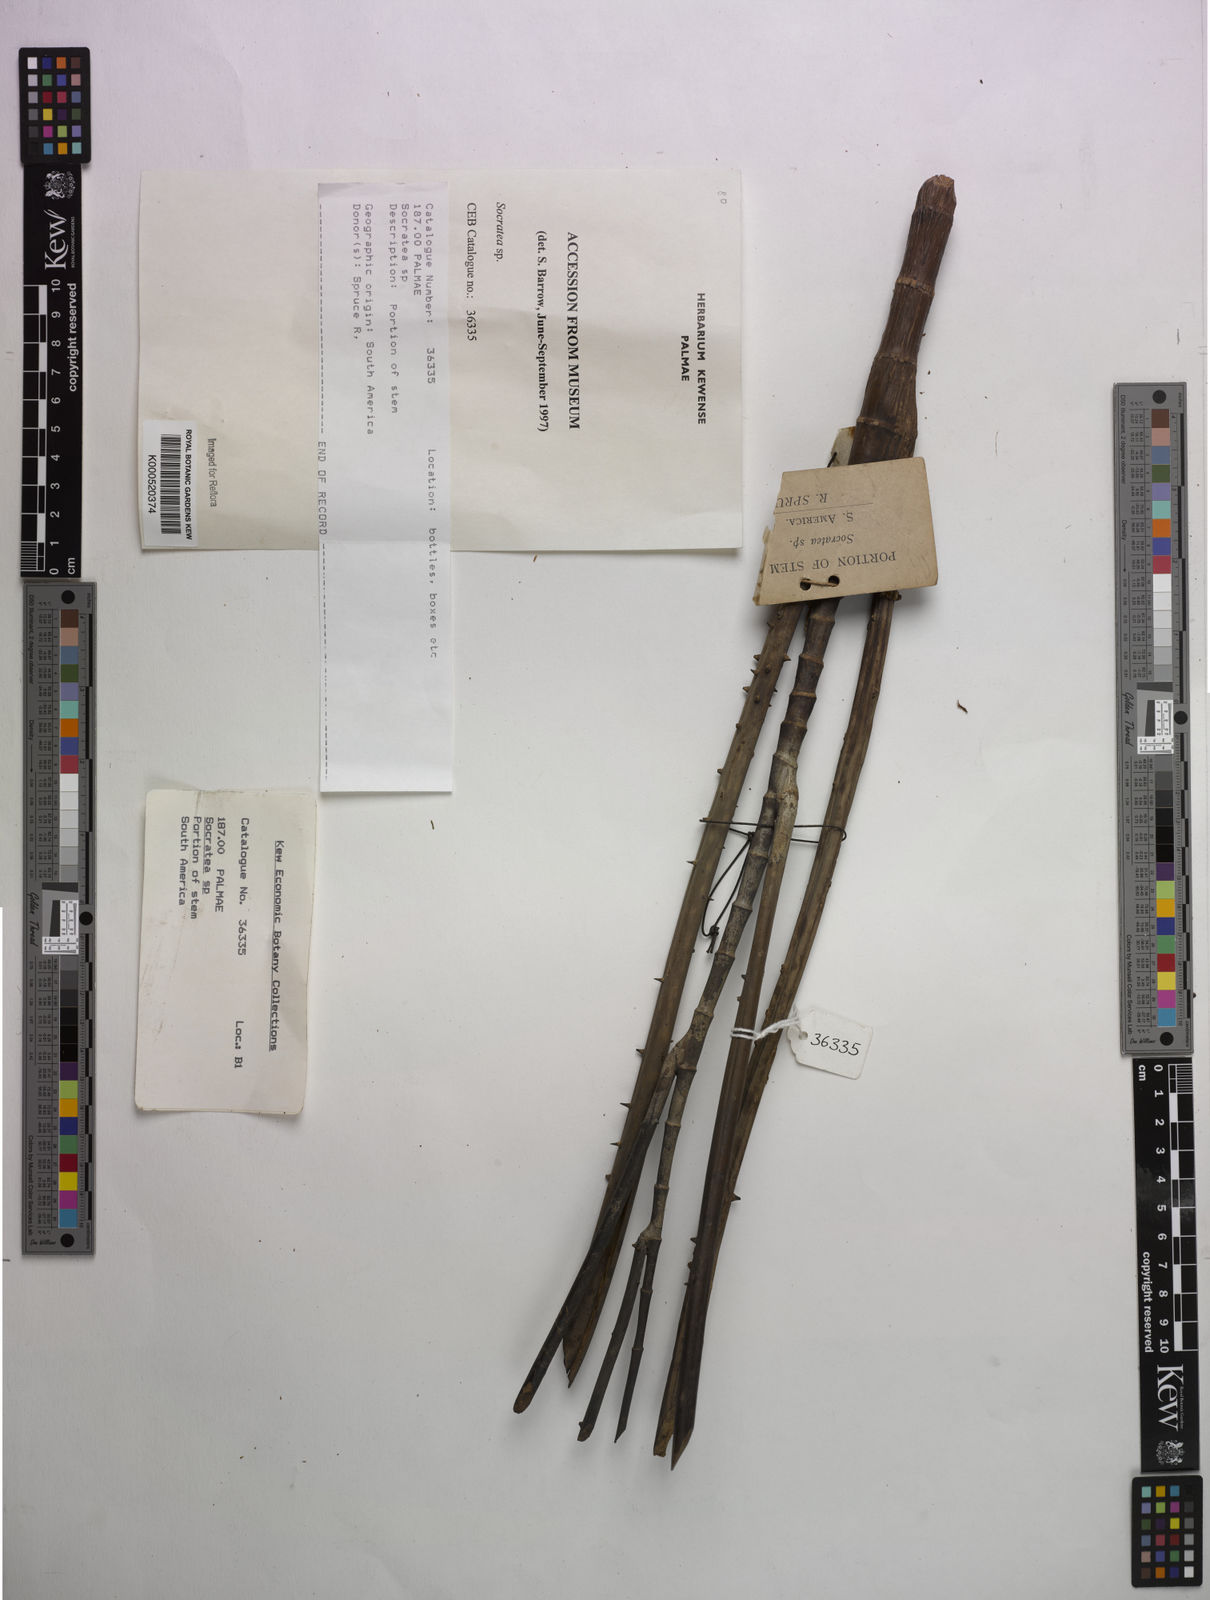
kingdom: Plantae
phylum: Tracheophyta
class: Liliopsida
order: Arecales
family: Arecaceae
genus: Socratea
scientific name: Socratea
